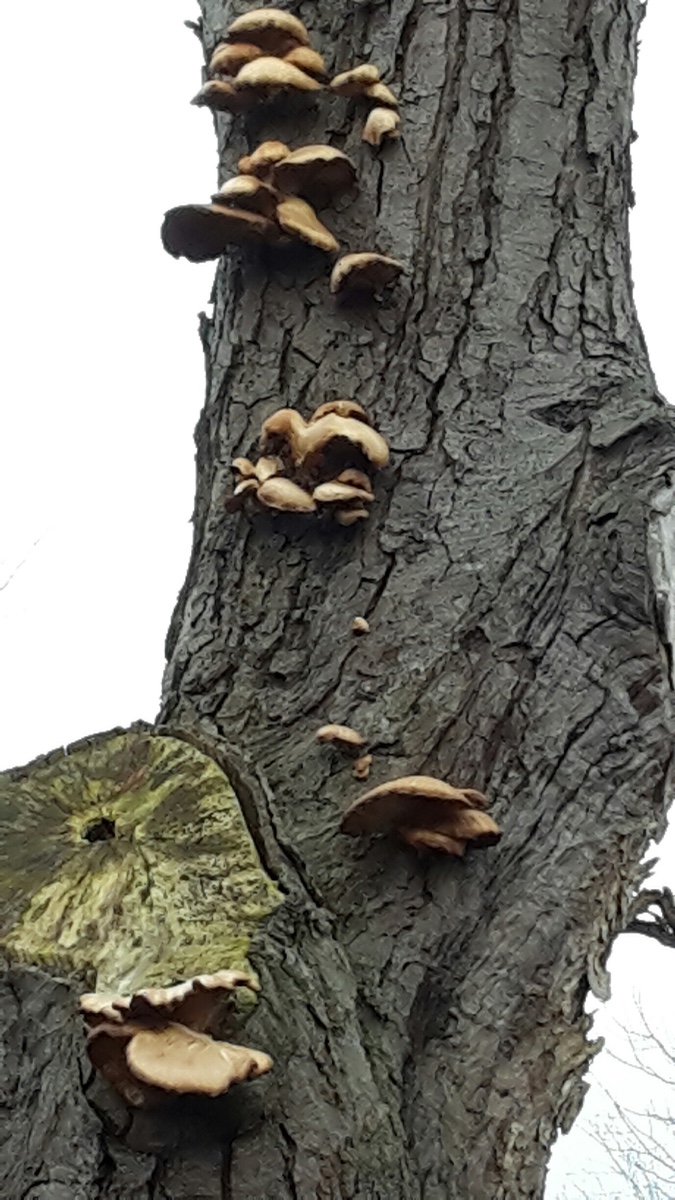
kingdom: Fungi
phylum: Basidiomycota
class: Agaricomycetes
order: Agaricales
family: Pleurotaceae
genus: Pleurotus
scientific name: Pleurotus ostreatus
